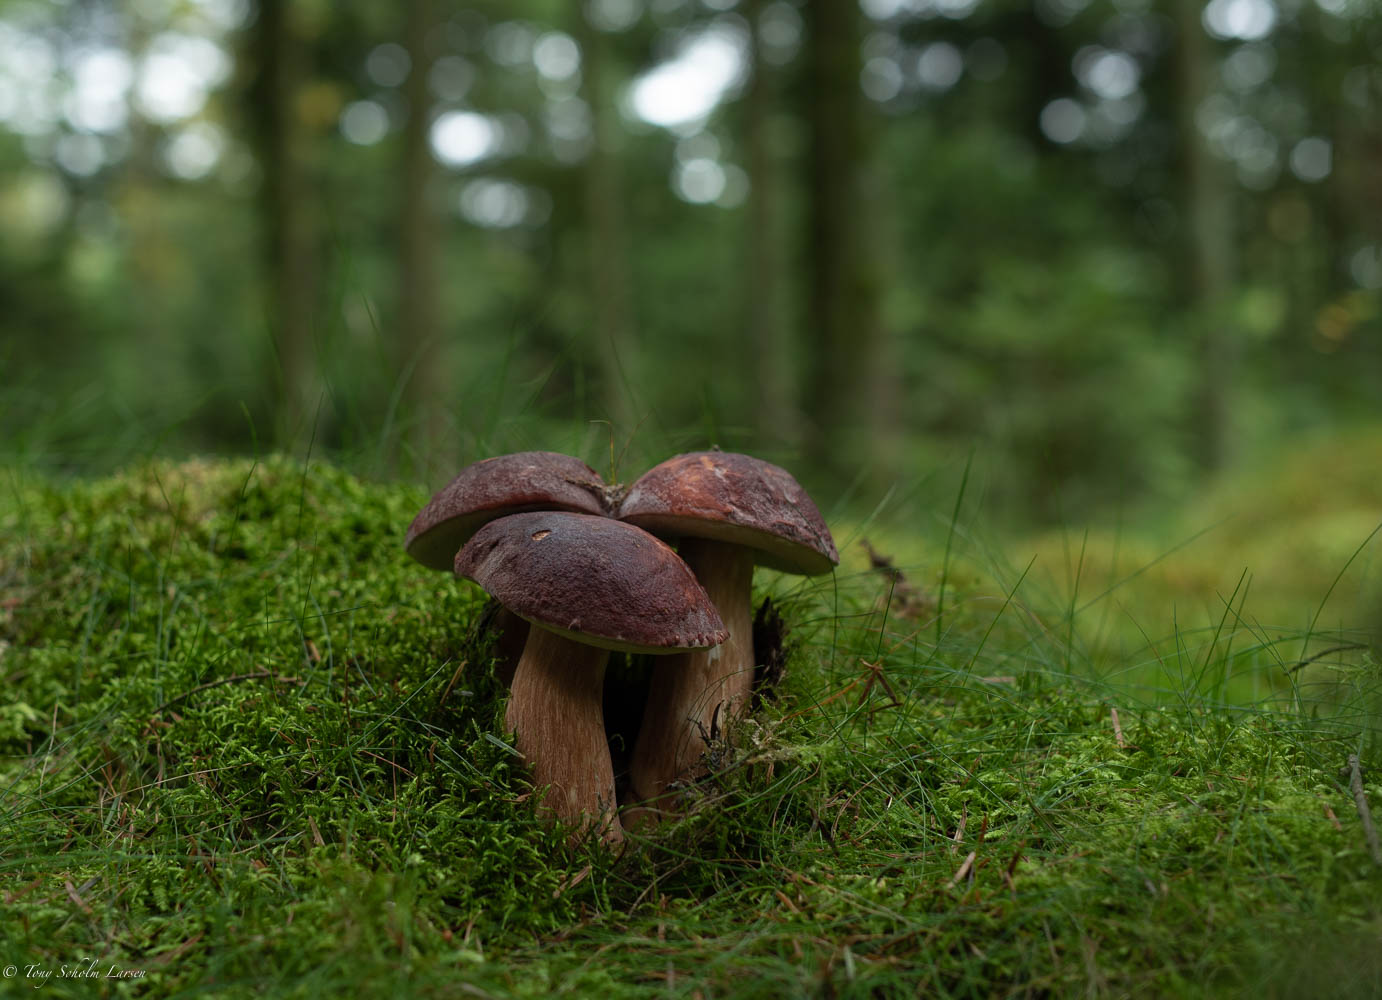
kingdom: Fungi
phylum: Basidiomycota
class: Agaricomycetes
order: Boletales
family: Boletaceae
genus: Imleria
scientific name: Imleria badia
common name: brunstokket rørhat
